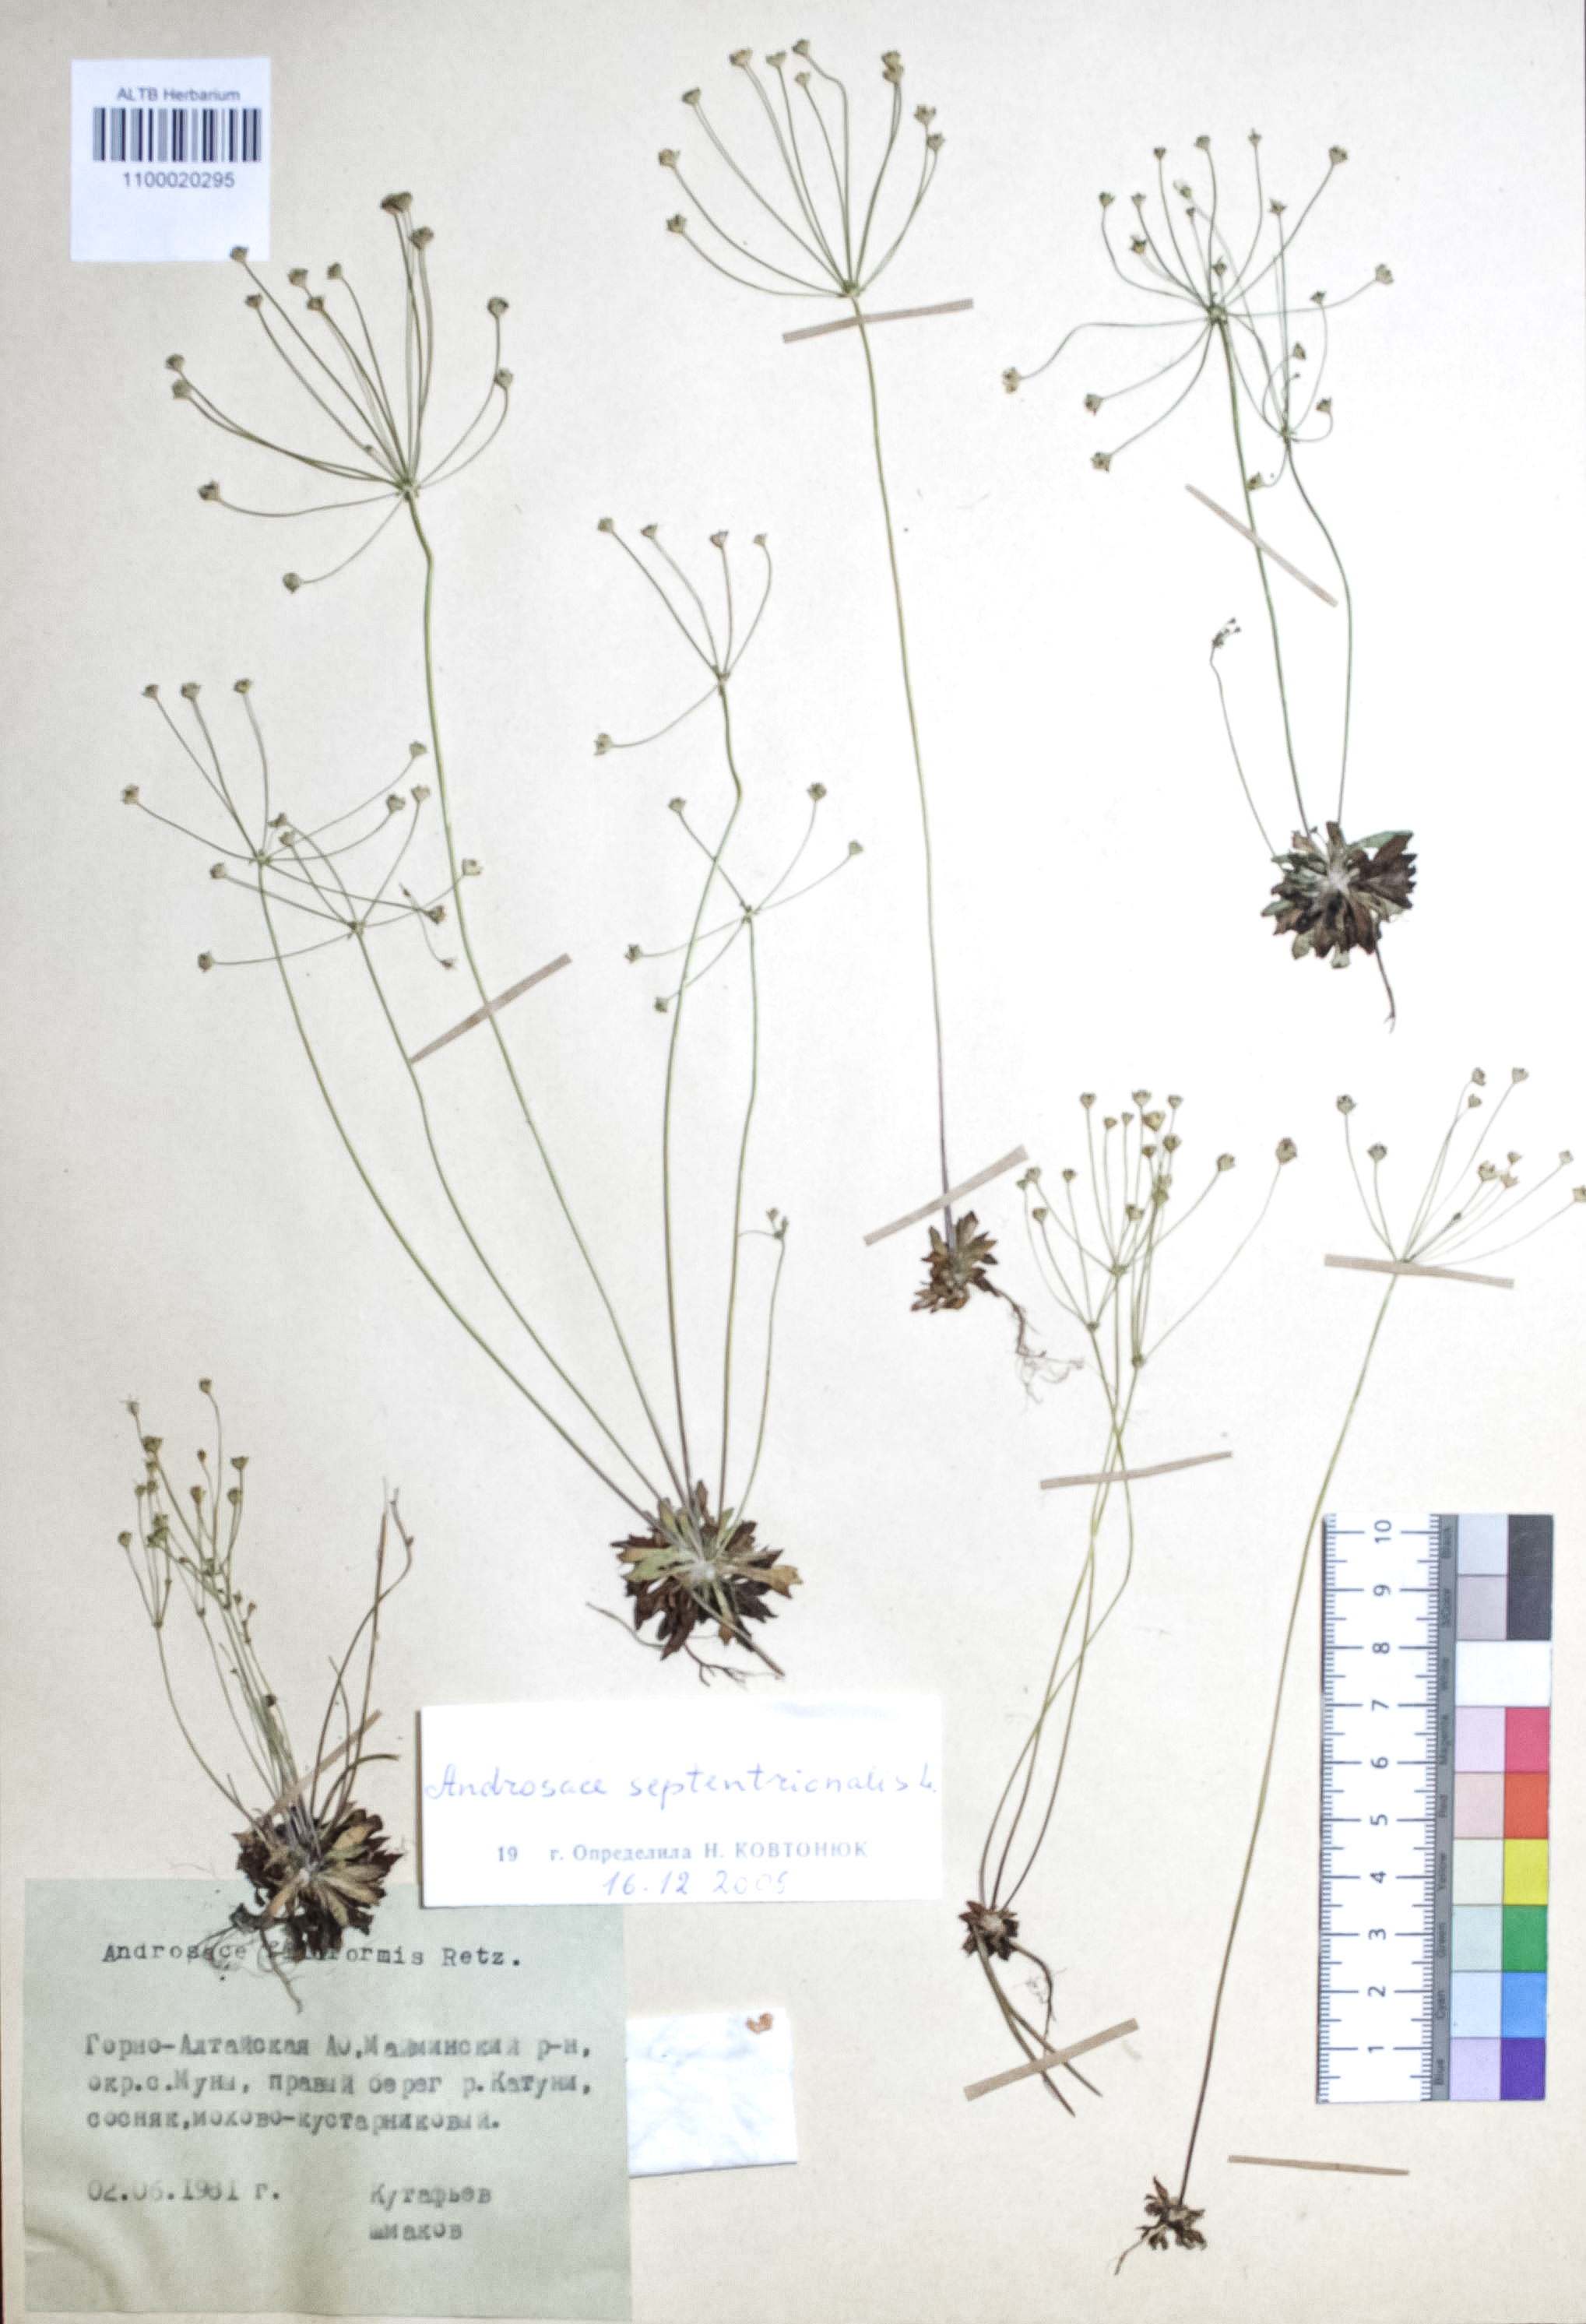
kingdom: Plantae
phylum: Tracheophyta
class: Magnoliopsida
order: Ericales
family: Primulaceae
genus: Androsace
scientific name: Androsace septentrionalis
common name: Hairy northern fairy-candelabra
